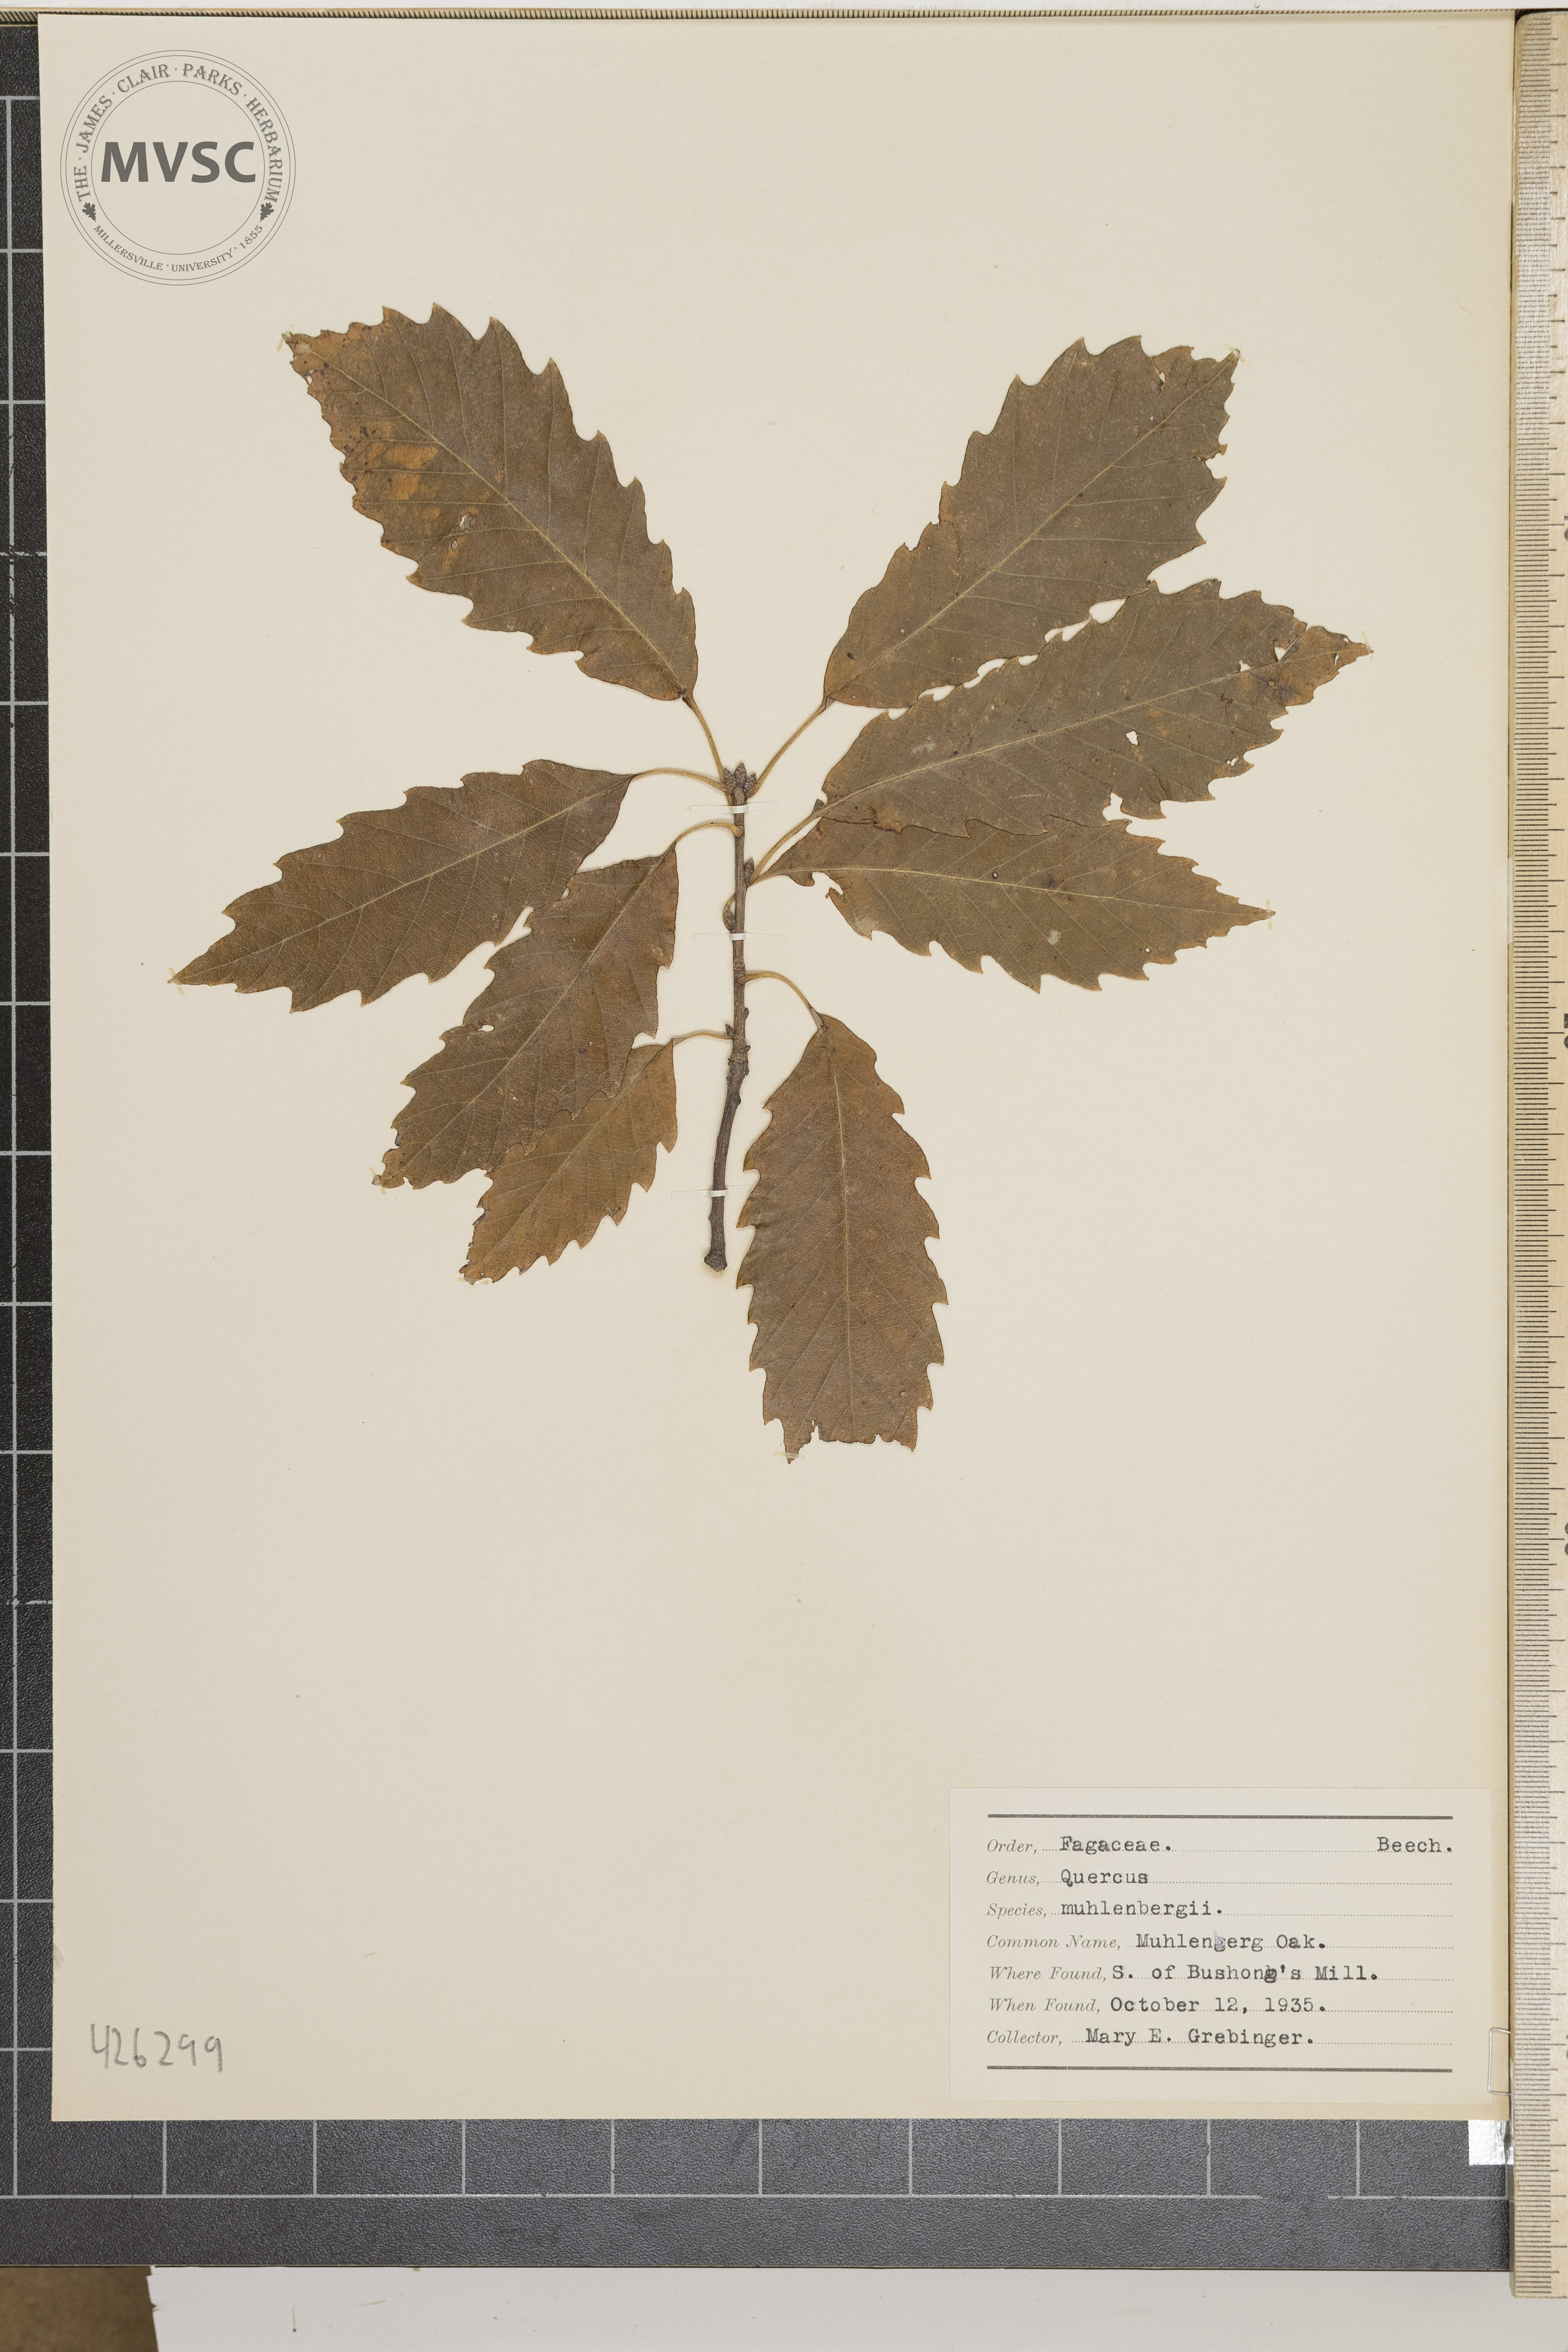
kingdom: Plantae
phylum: Tracheophyta
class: Magnoliopsida
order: Fagales
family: Fagaceae
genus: Quercus
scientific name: Quercus muehlenbergii
